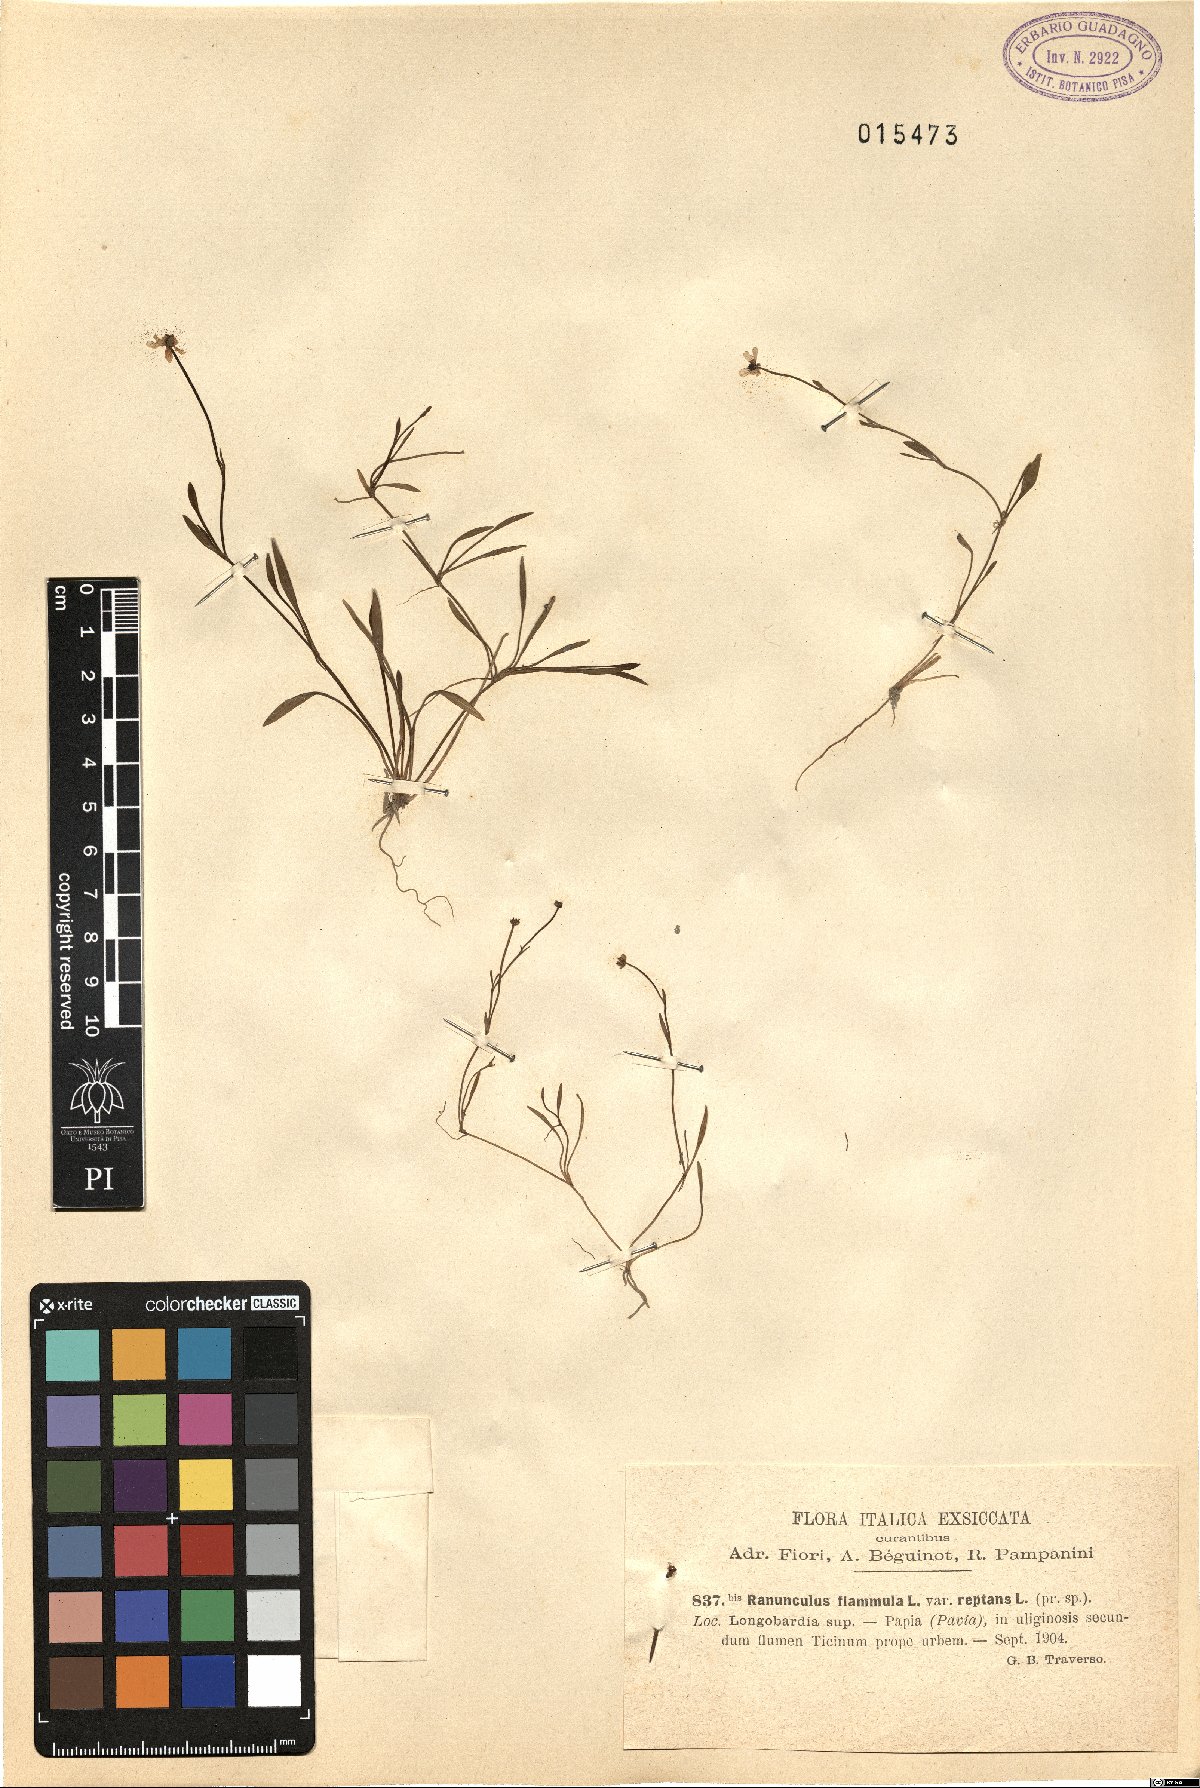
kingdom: Plantae
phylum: Tracheophyta
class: Magnoliopsida
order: Ranunculales
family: Ranunculaceae
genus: Ranunculus
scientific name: Ranunculus reptans
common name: Creeping spearwort
